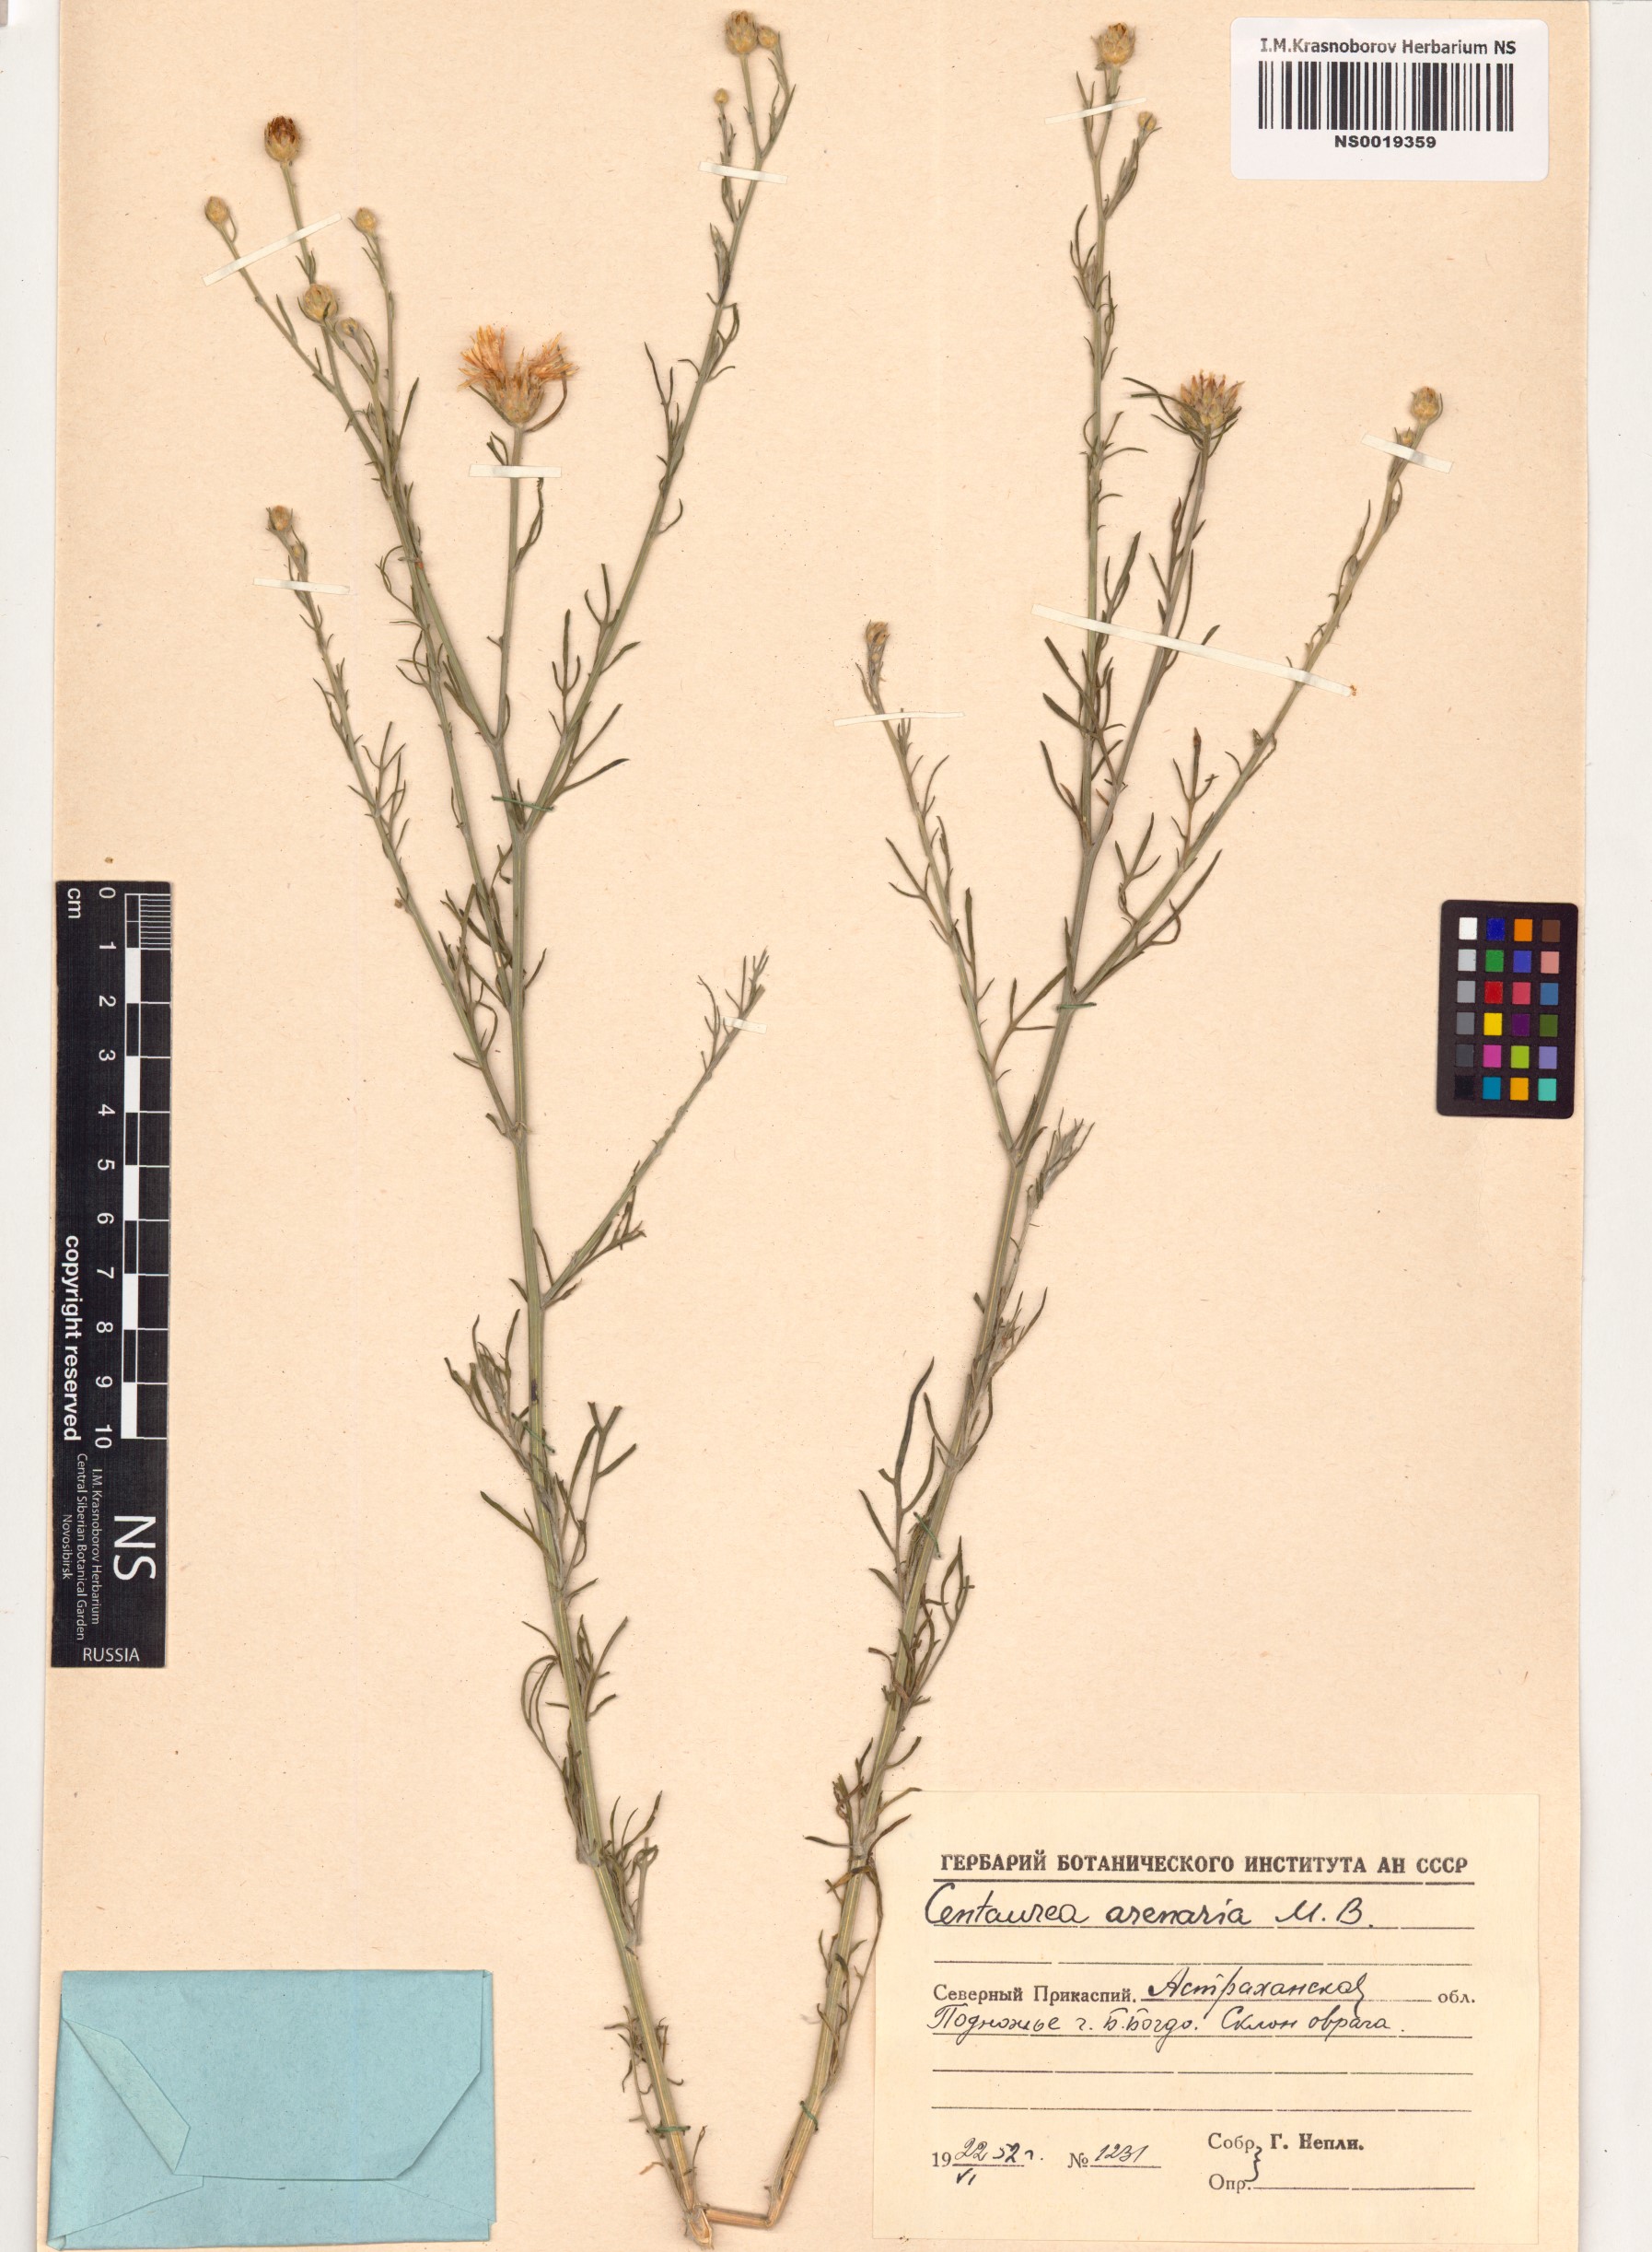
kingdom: Plantae
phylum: Tracheophyta
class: Magnoliopsida
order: Asterales
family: Asteraceae
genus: Centaurea
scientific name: Centaurea arenaria
